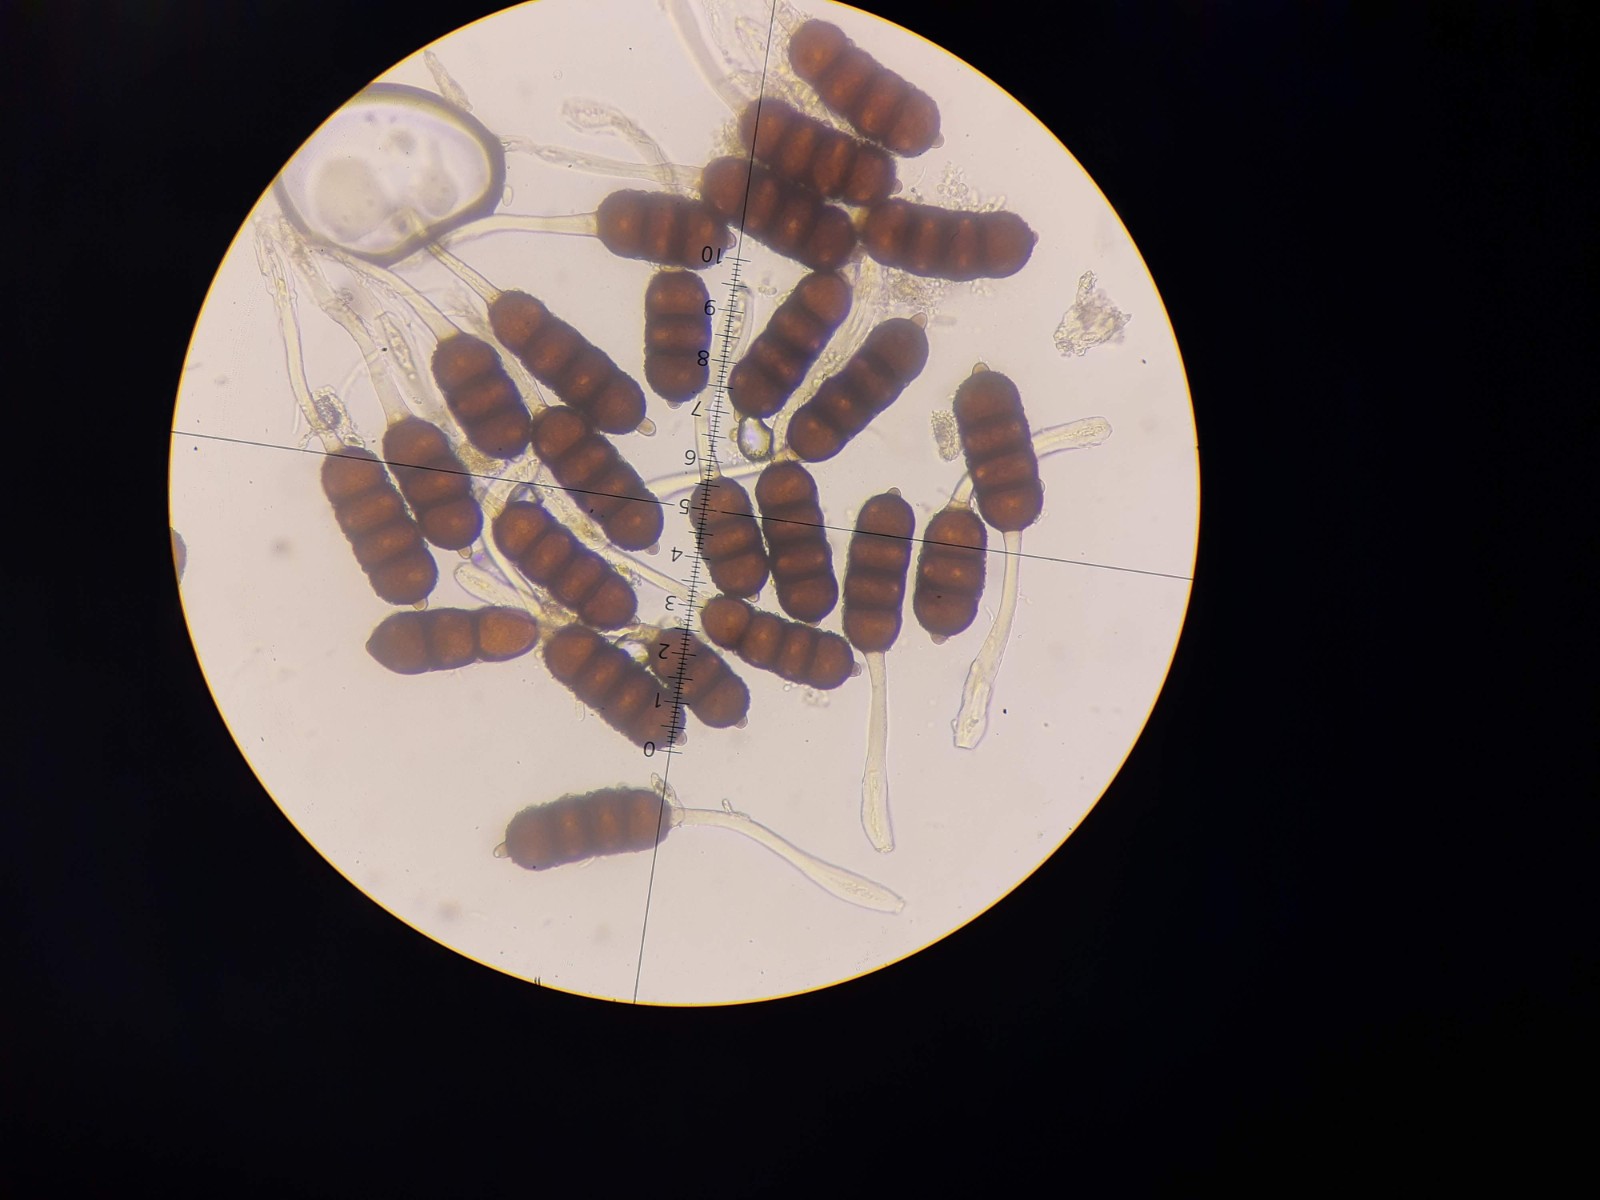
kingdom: Fungi
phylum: Basidiomycota
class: Pucciniomycetes
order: Pucciniales
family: Phragmidiaceae
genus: Phragmidium
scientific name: Phragmidium violaceum
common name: violet flercellerust
